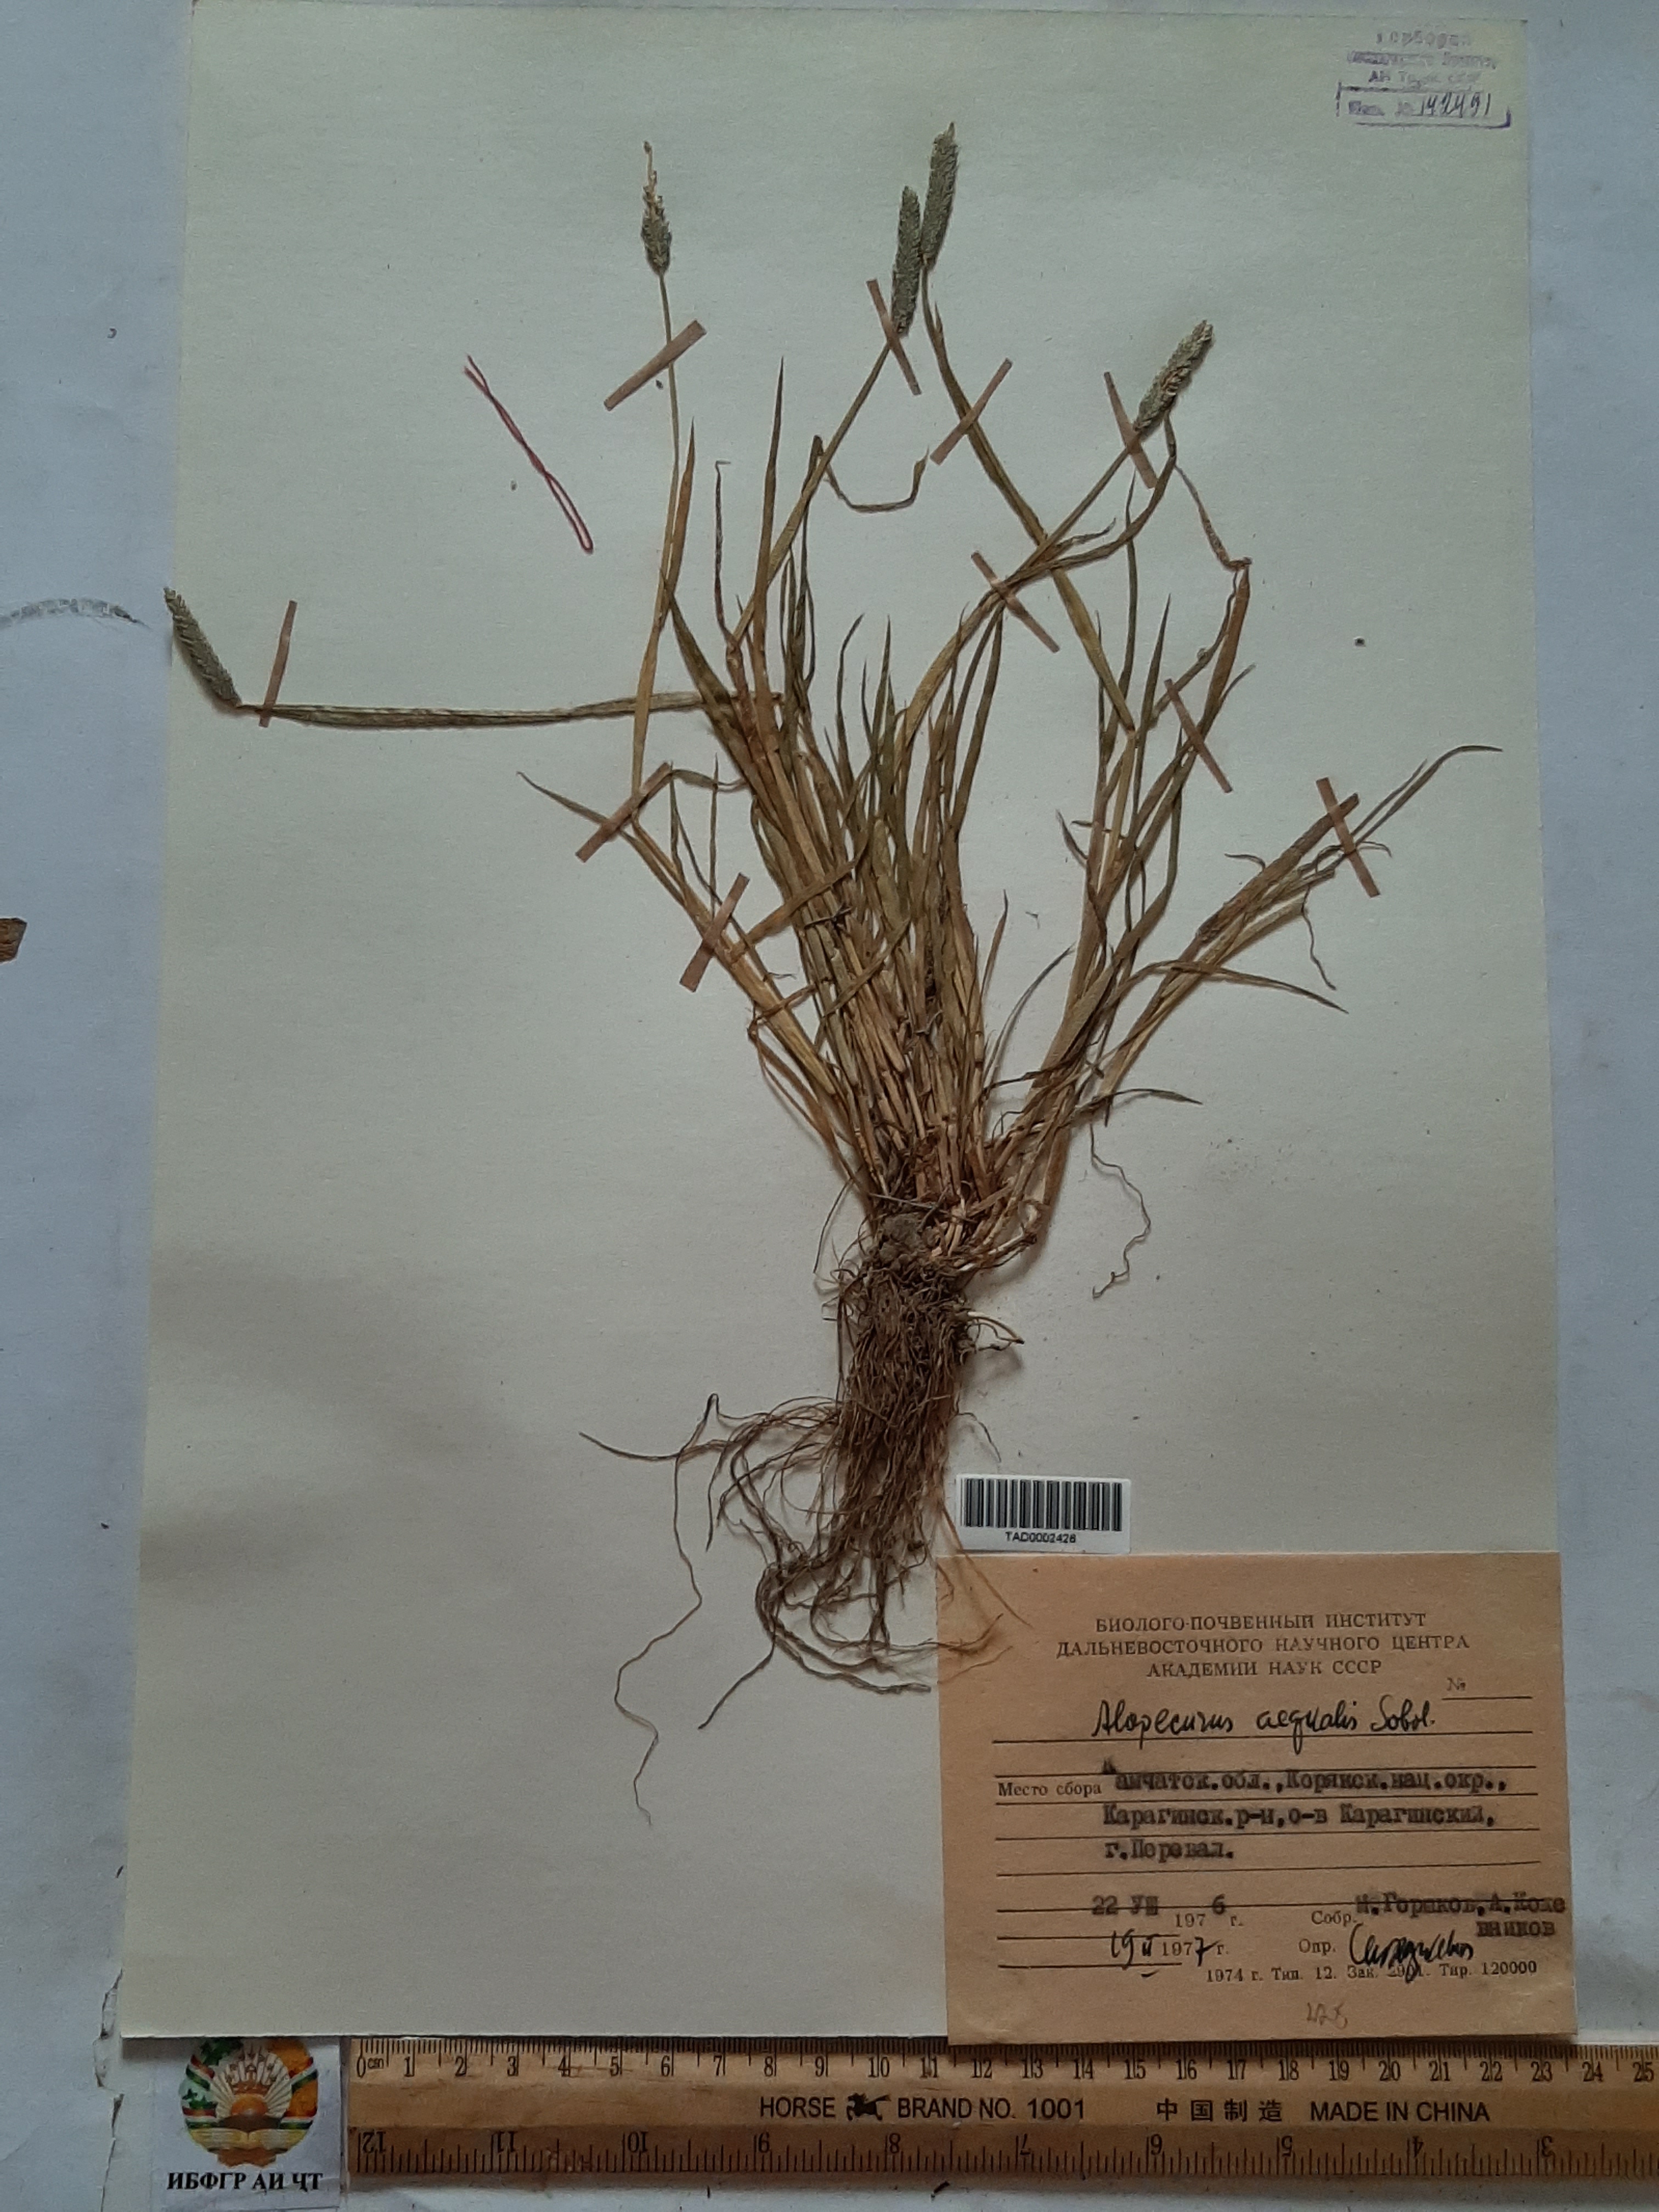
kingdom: Plantae
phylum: Tracheophyta
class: Liliopsida
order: Poales
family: Poaceae
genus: Alopecurus
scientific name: Alopecurus aequalis
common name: Orange foxtail
